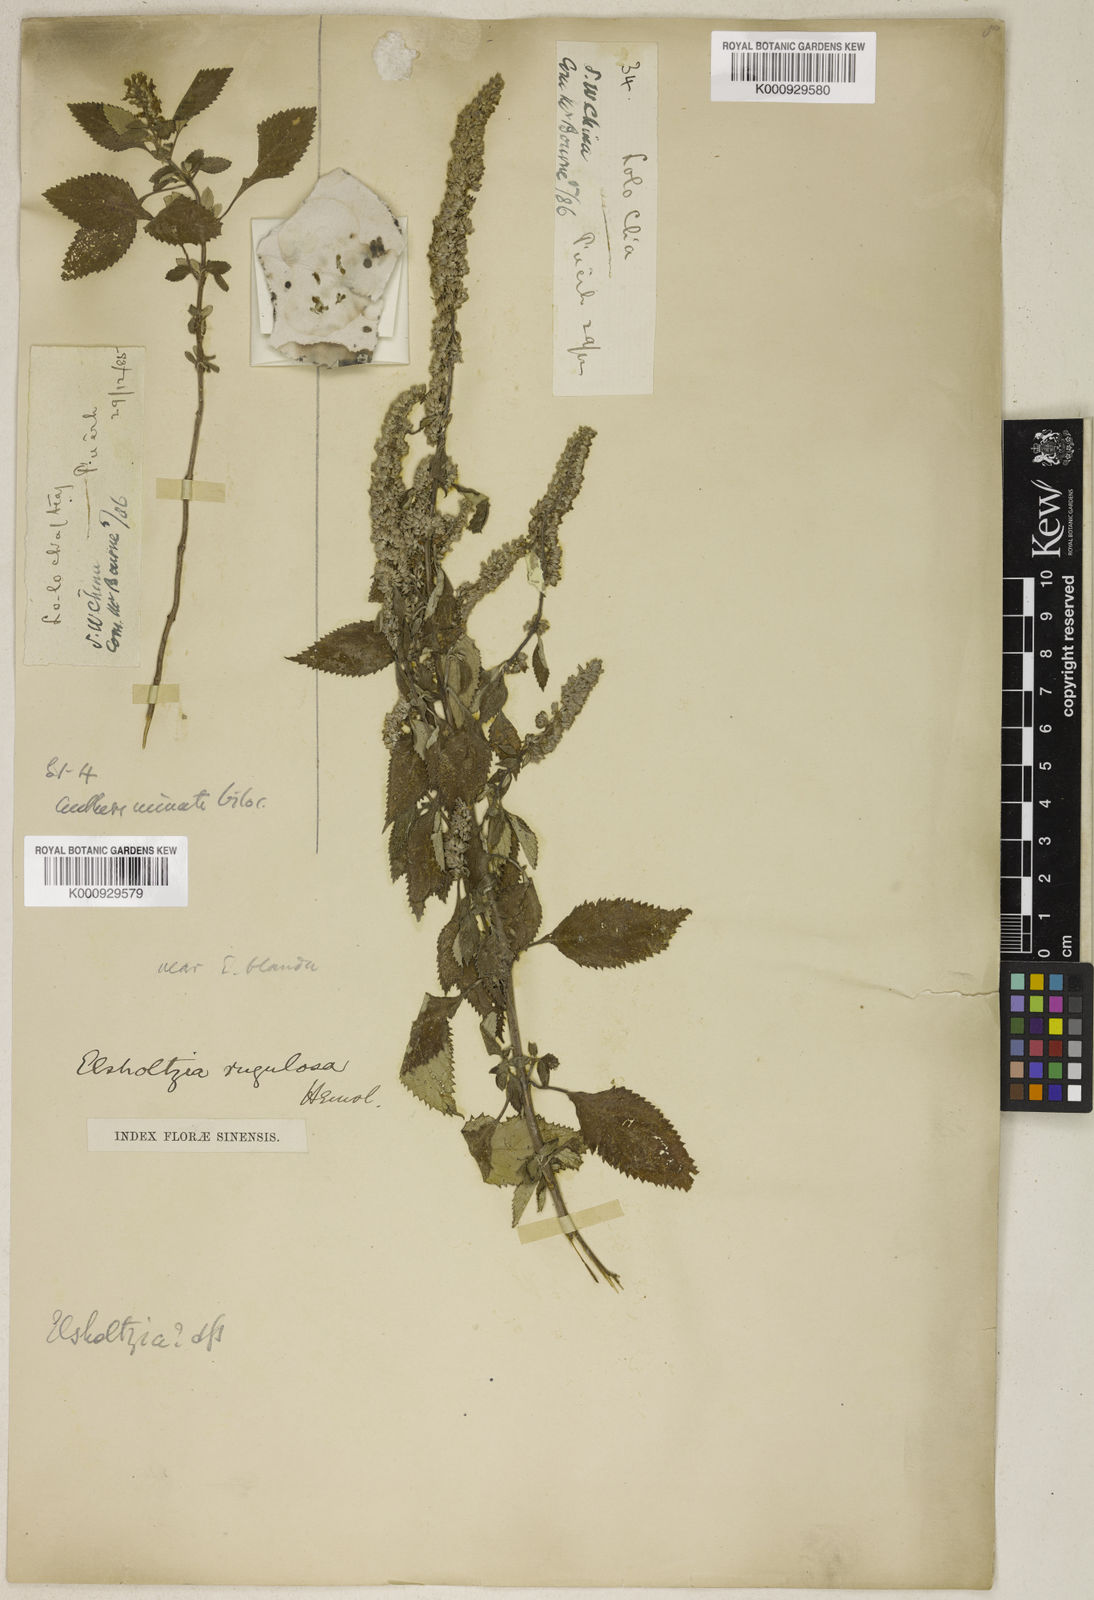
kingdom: Plantae
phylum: Tracheophyta
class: Magnoliopsida
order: Lamiales
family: Lamiaceae
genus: Elsholtzia
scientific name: Elsholtzia rugulosa
